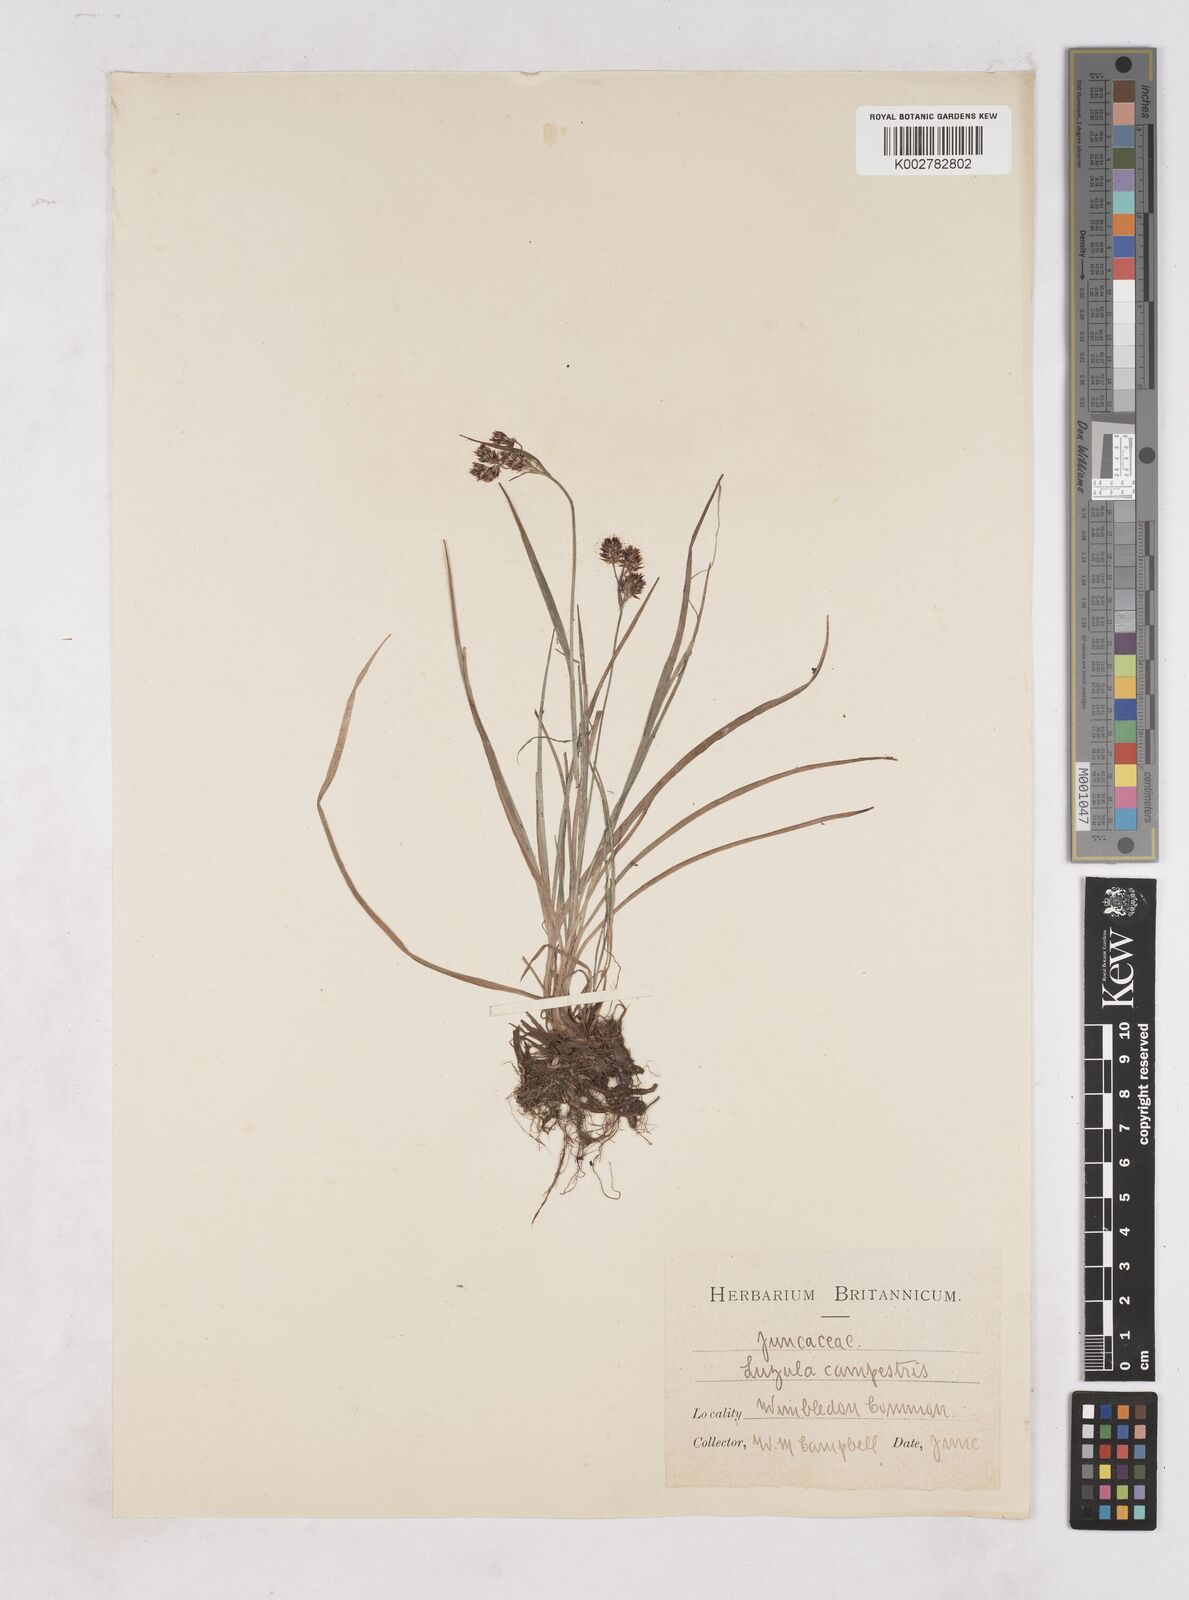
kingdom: Plantae
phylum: Tracheophyta
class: Liliopsida
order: Poales
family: Juncaceae
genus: Luzula
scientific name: Luzula campestris
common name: Field wood-rush
